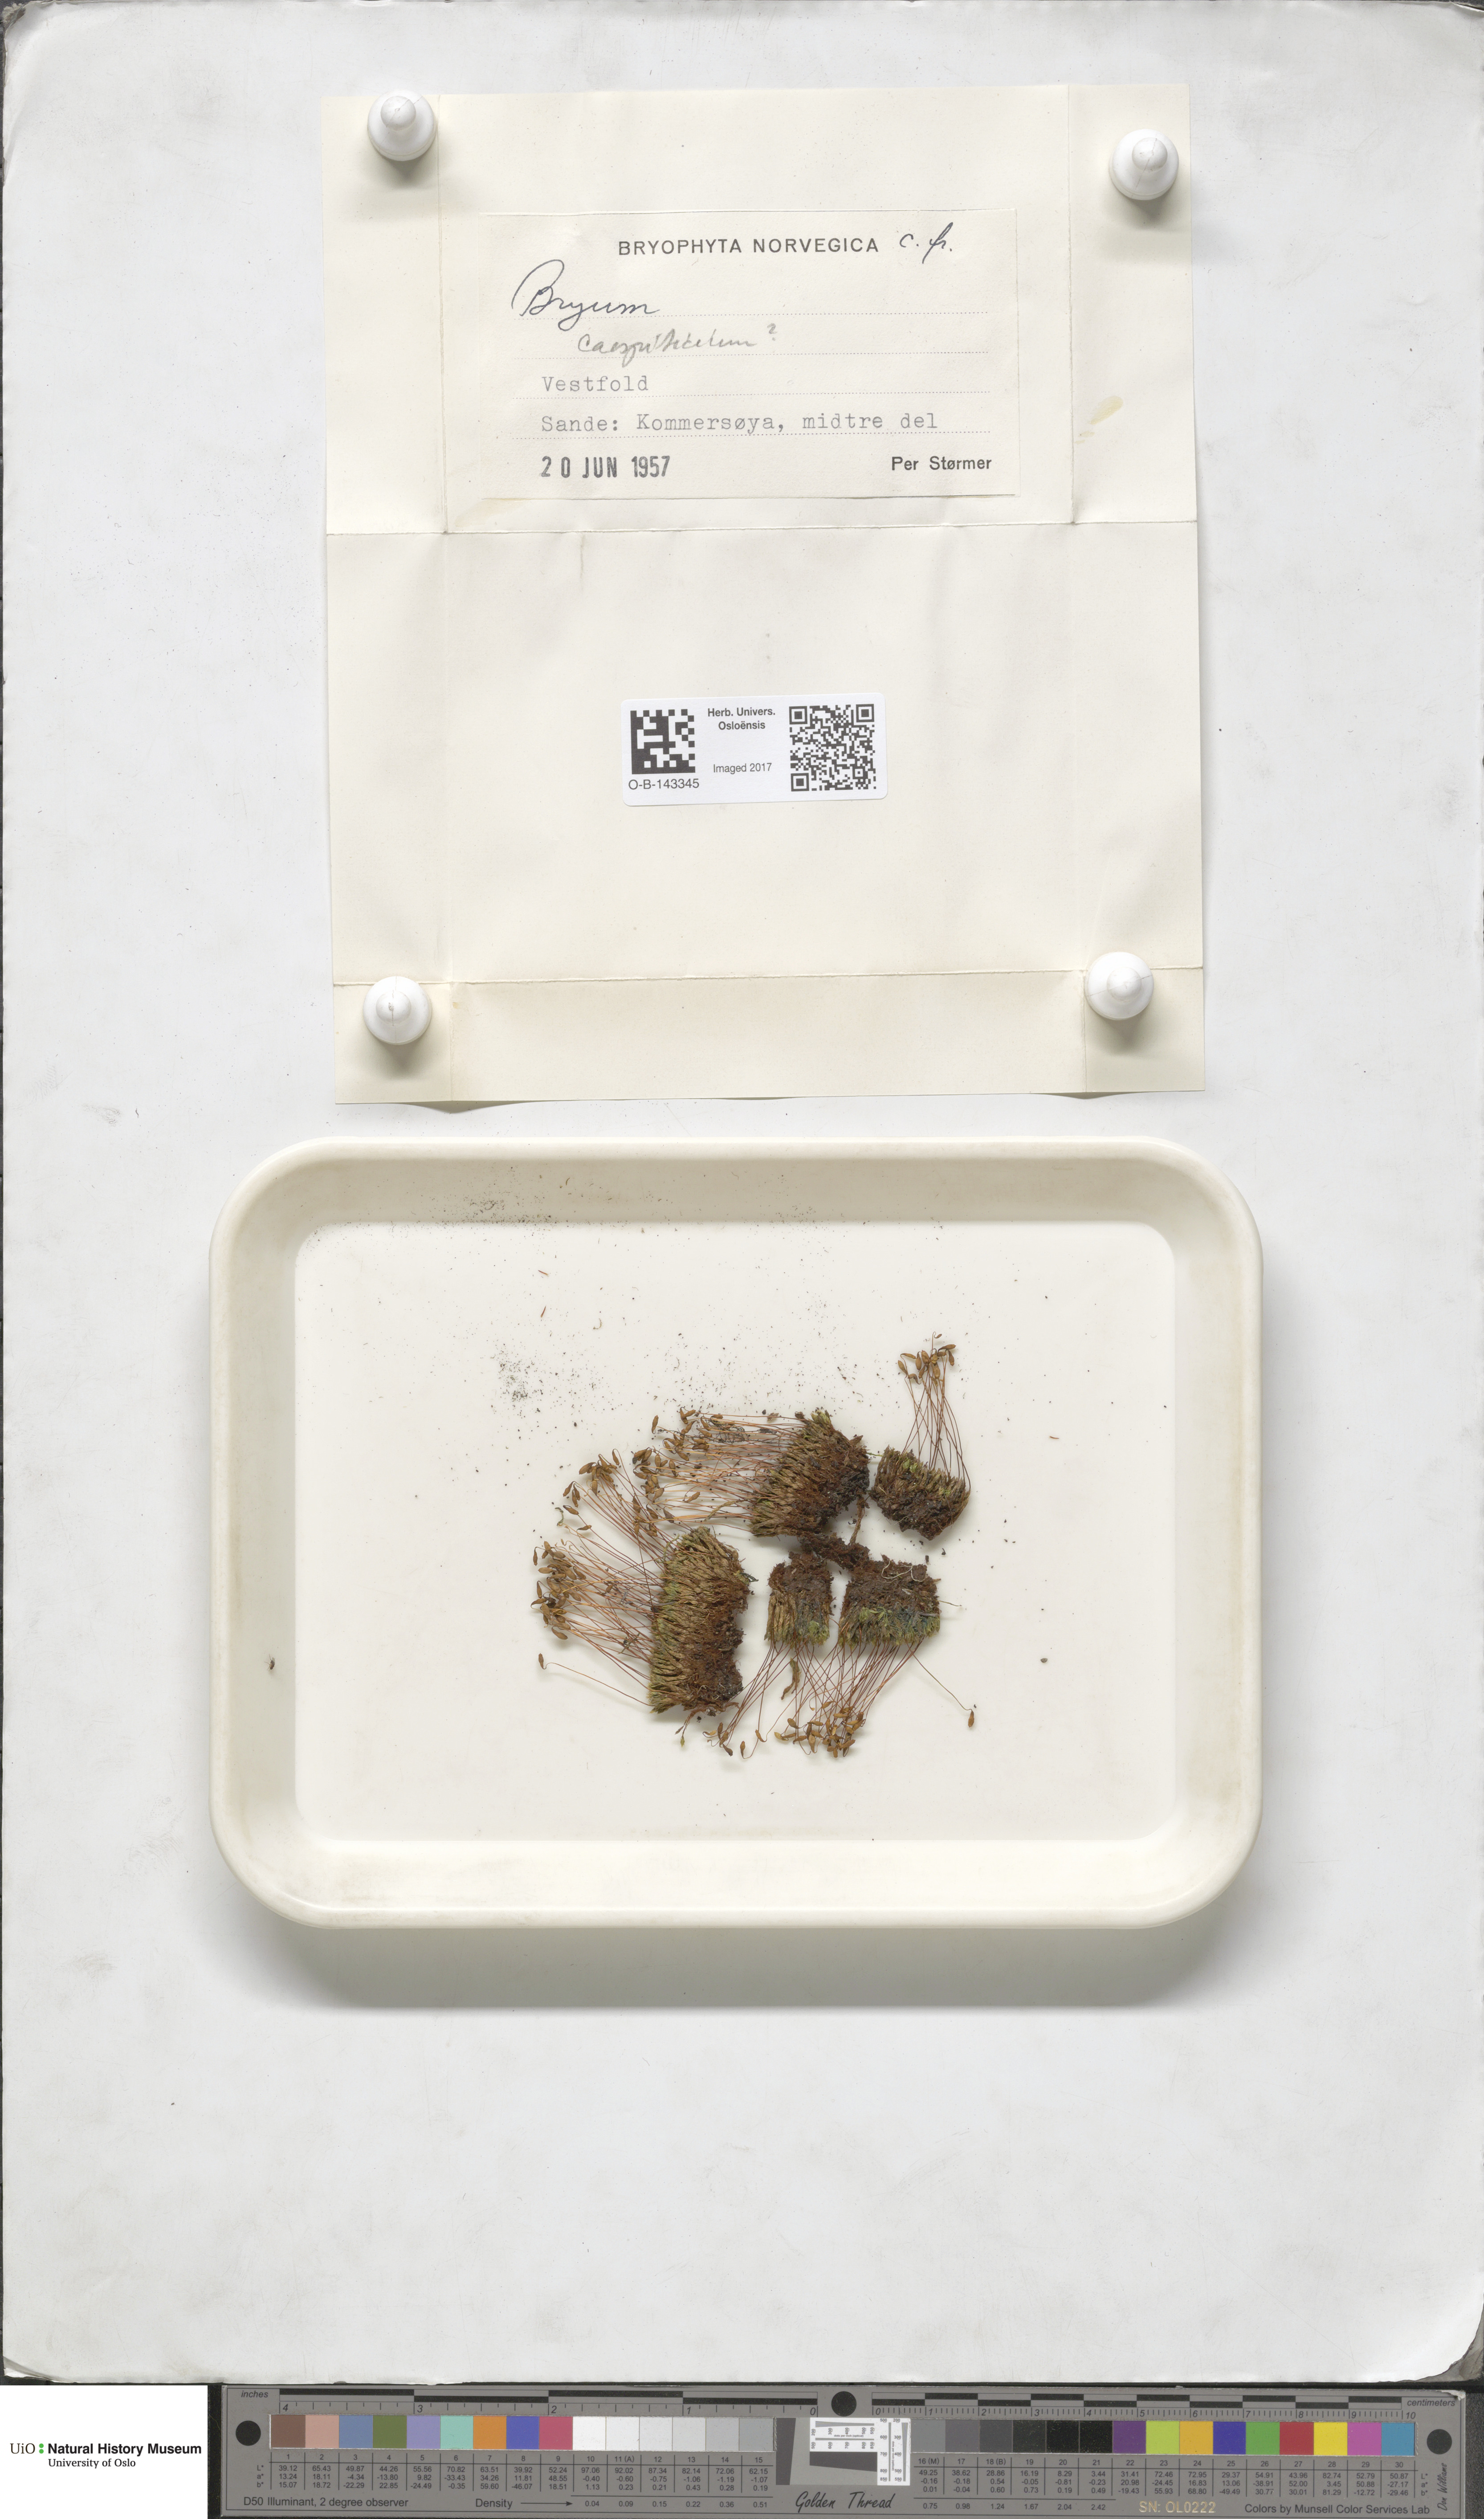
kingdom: Plantae
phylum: Bryophyta
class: Bryopsida
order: Bryales
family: Bryaceae
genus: Bryum
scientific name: Bryum
